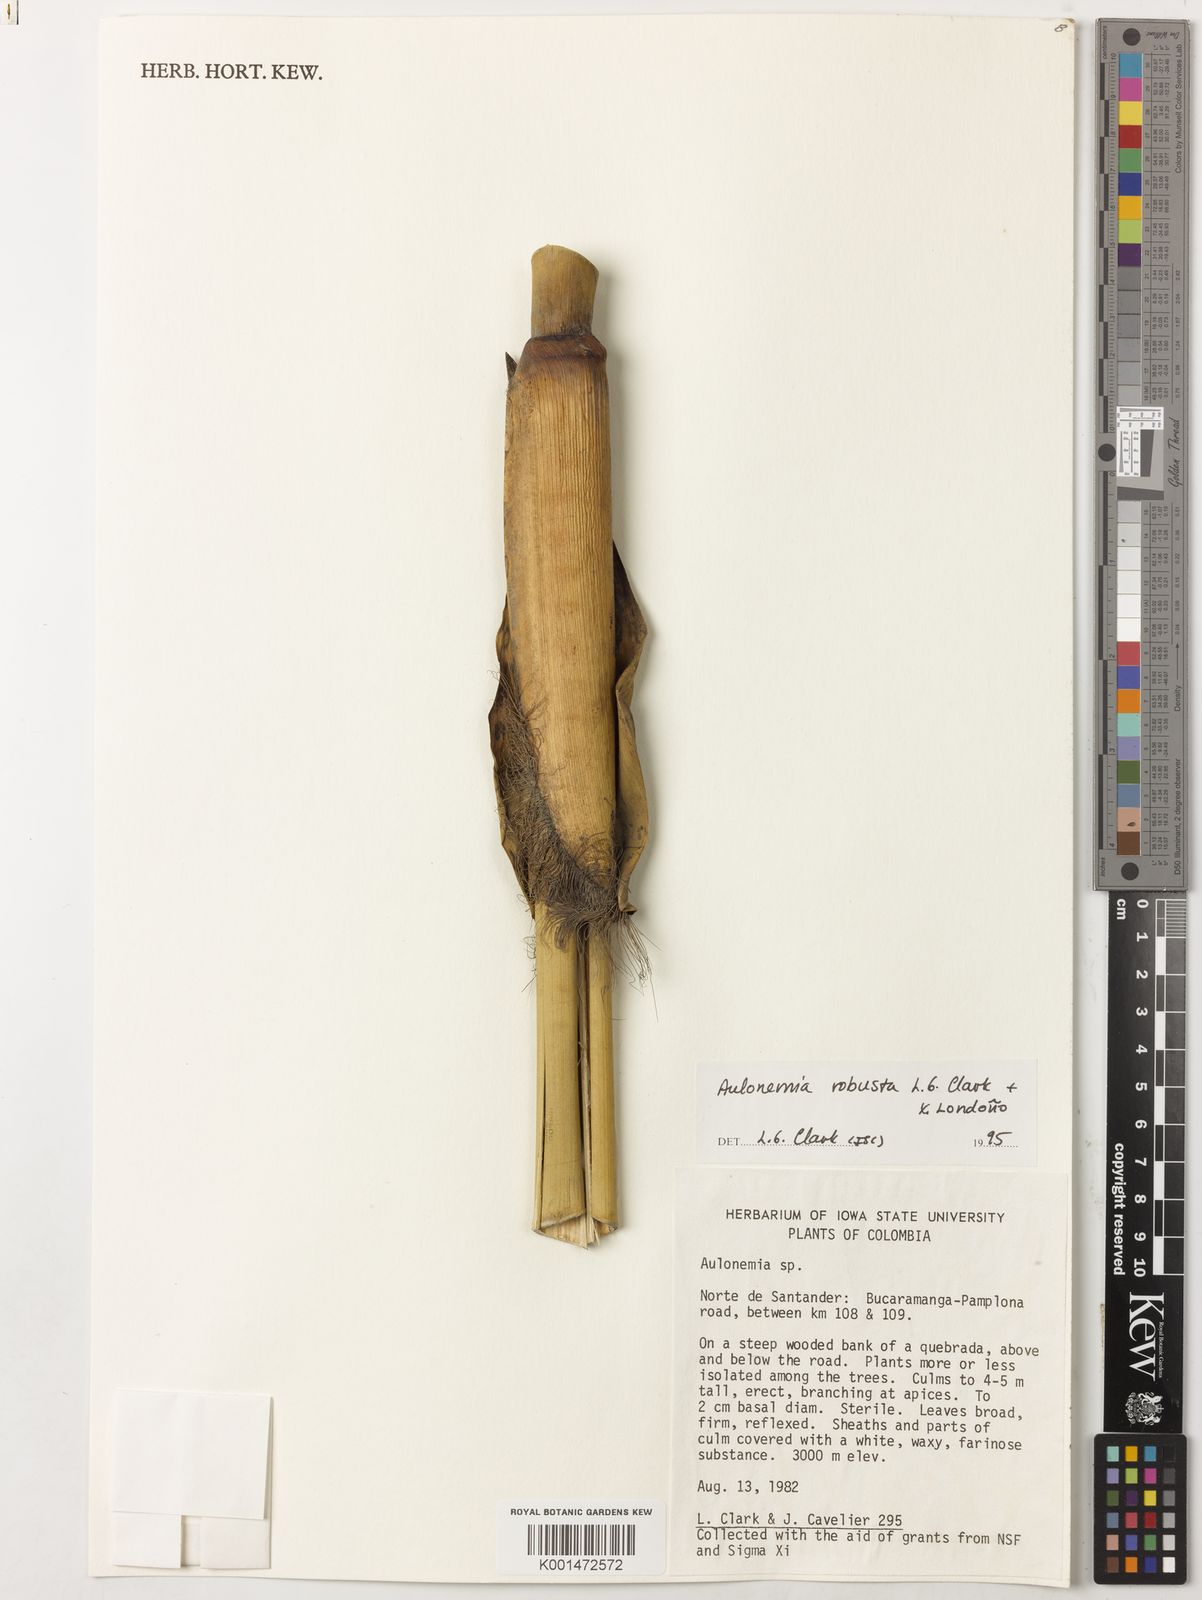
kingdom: Plantae
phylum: Tracheophyta
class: Liliopsida
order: Poales
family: Poaceae
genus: Aulonemia
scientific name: Aulonemia
